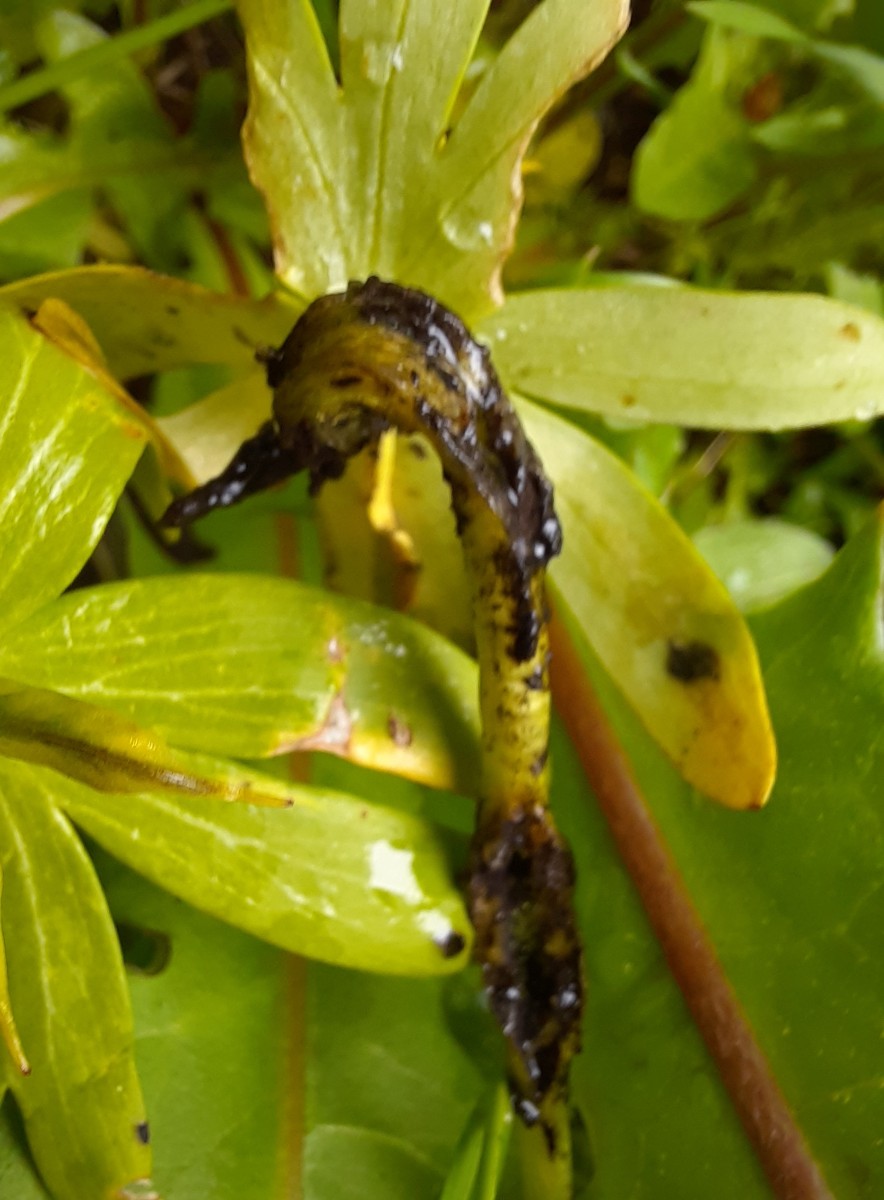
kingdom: Fungi
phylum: Basidiomycota
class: Ustilaginomycetes
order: Urocystidales
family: Urocystidaceae
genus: Urocystis
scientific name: Urocystis eranthidis
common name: erantis-brand
